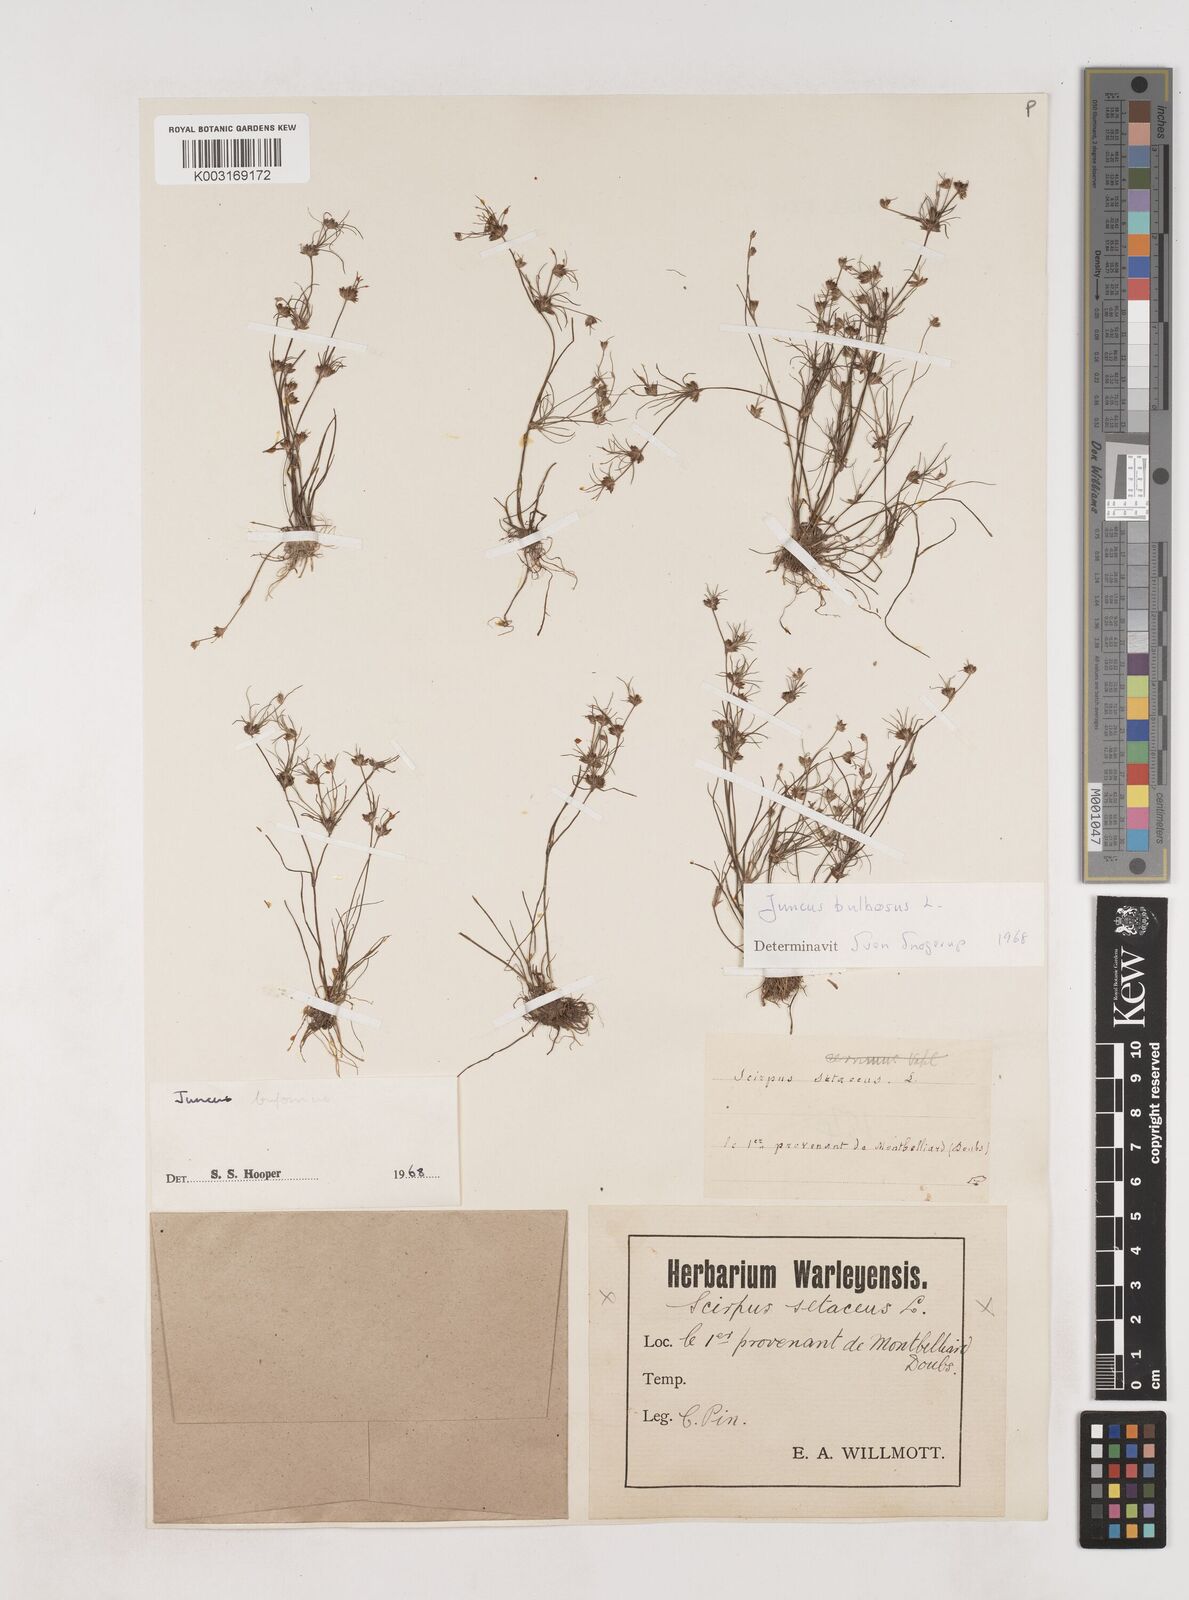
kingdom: Plantae
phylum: Tracheophyta
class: Liliopsida
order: Poales
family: Juncaceae
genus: Juncus
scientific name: Juncus bulbosus
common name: Bulbous rush
